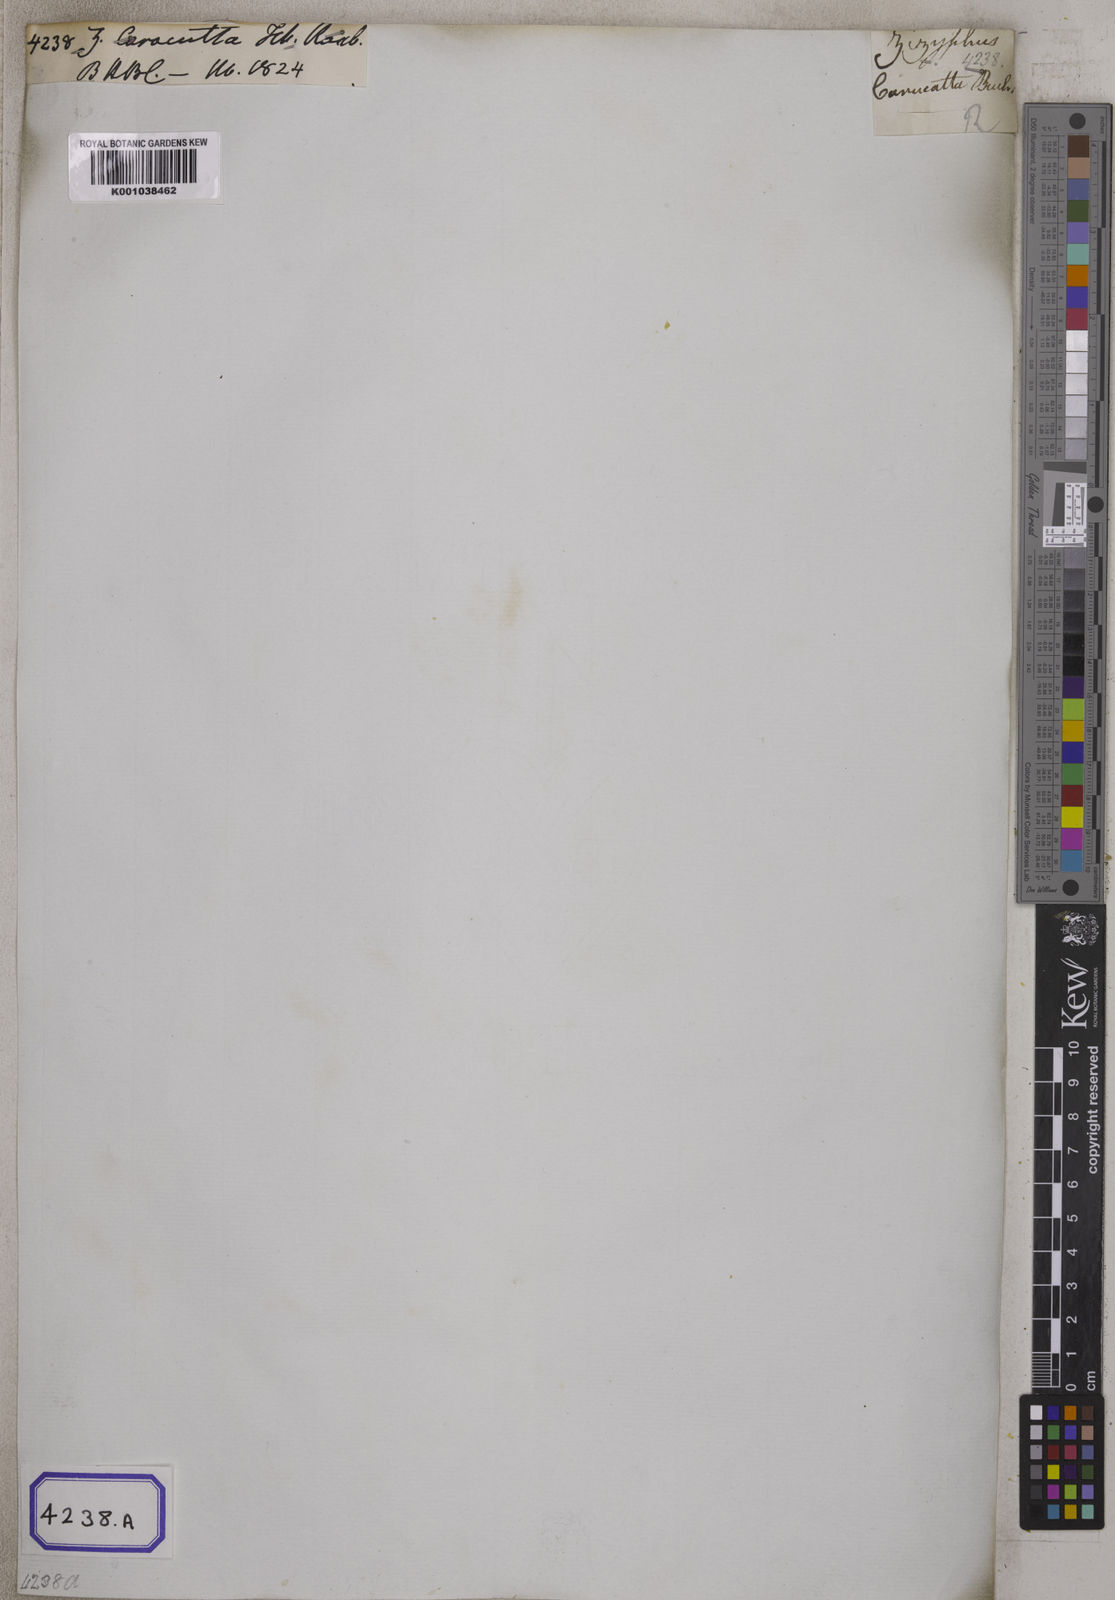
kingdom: Plantae
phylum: Tracheophyta
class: Magnoliopsida
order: Rosales
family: Rhamnaceae
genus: Ziziphus
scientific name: Ziziphus
